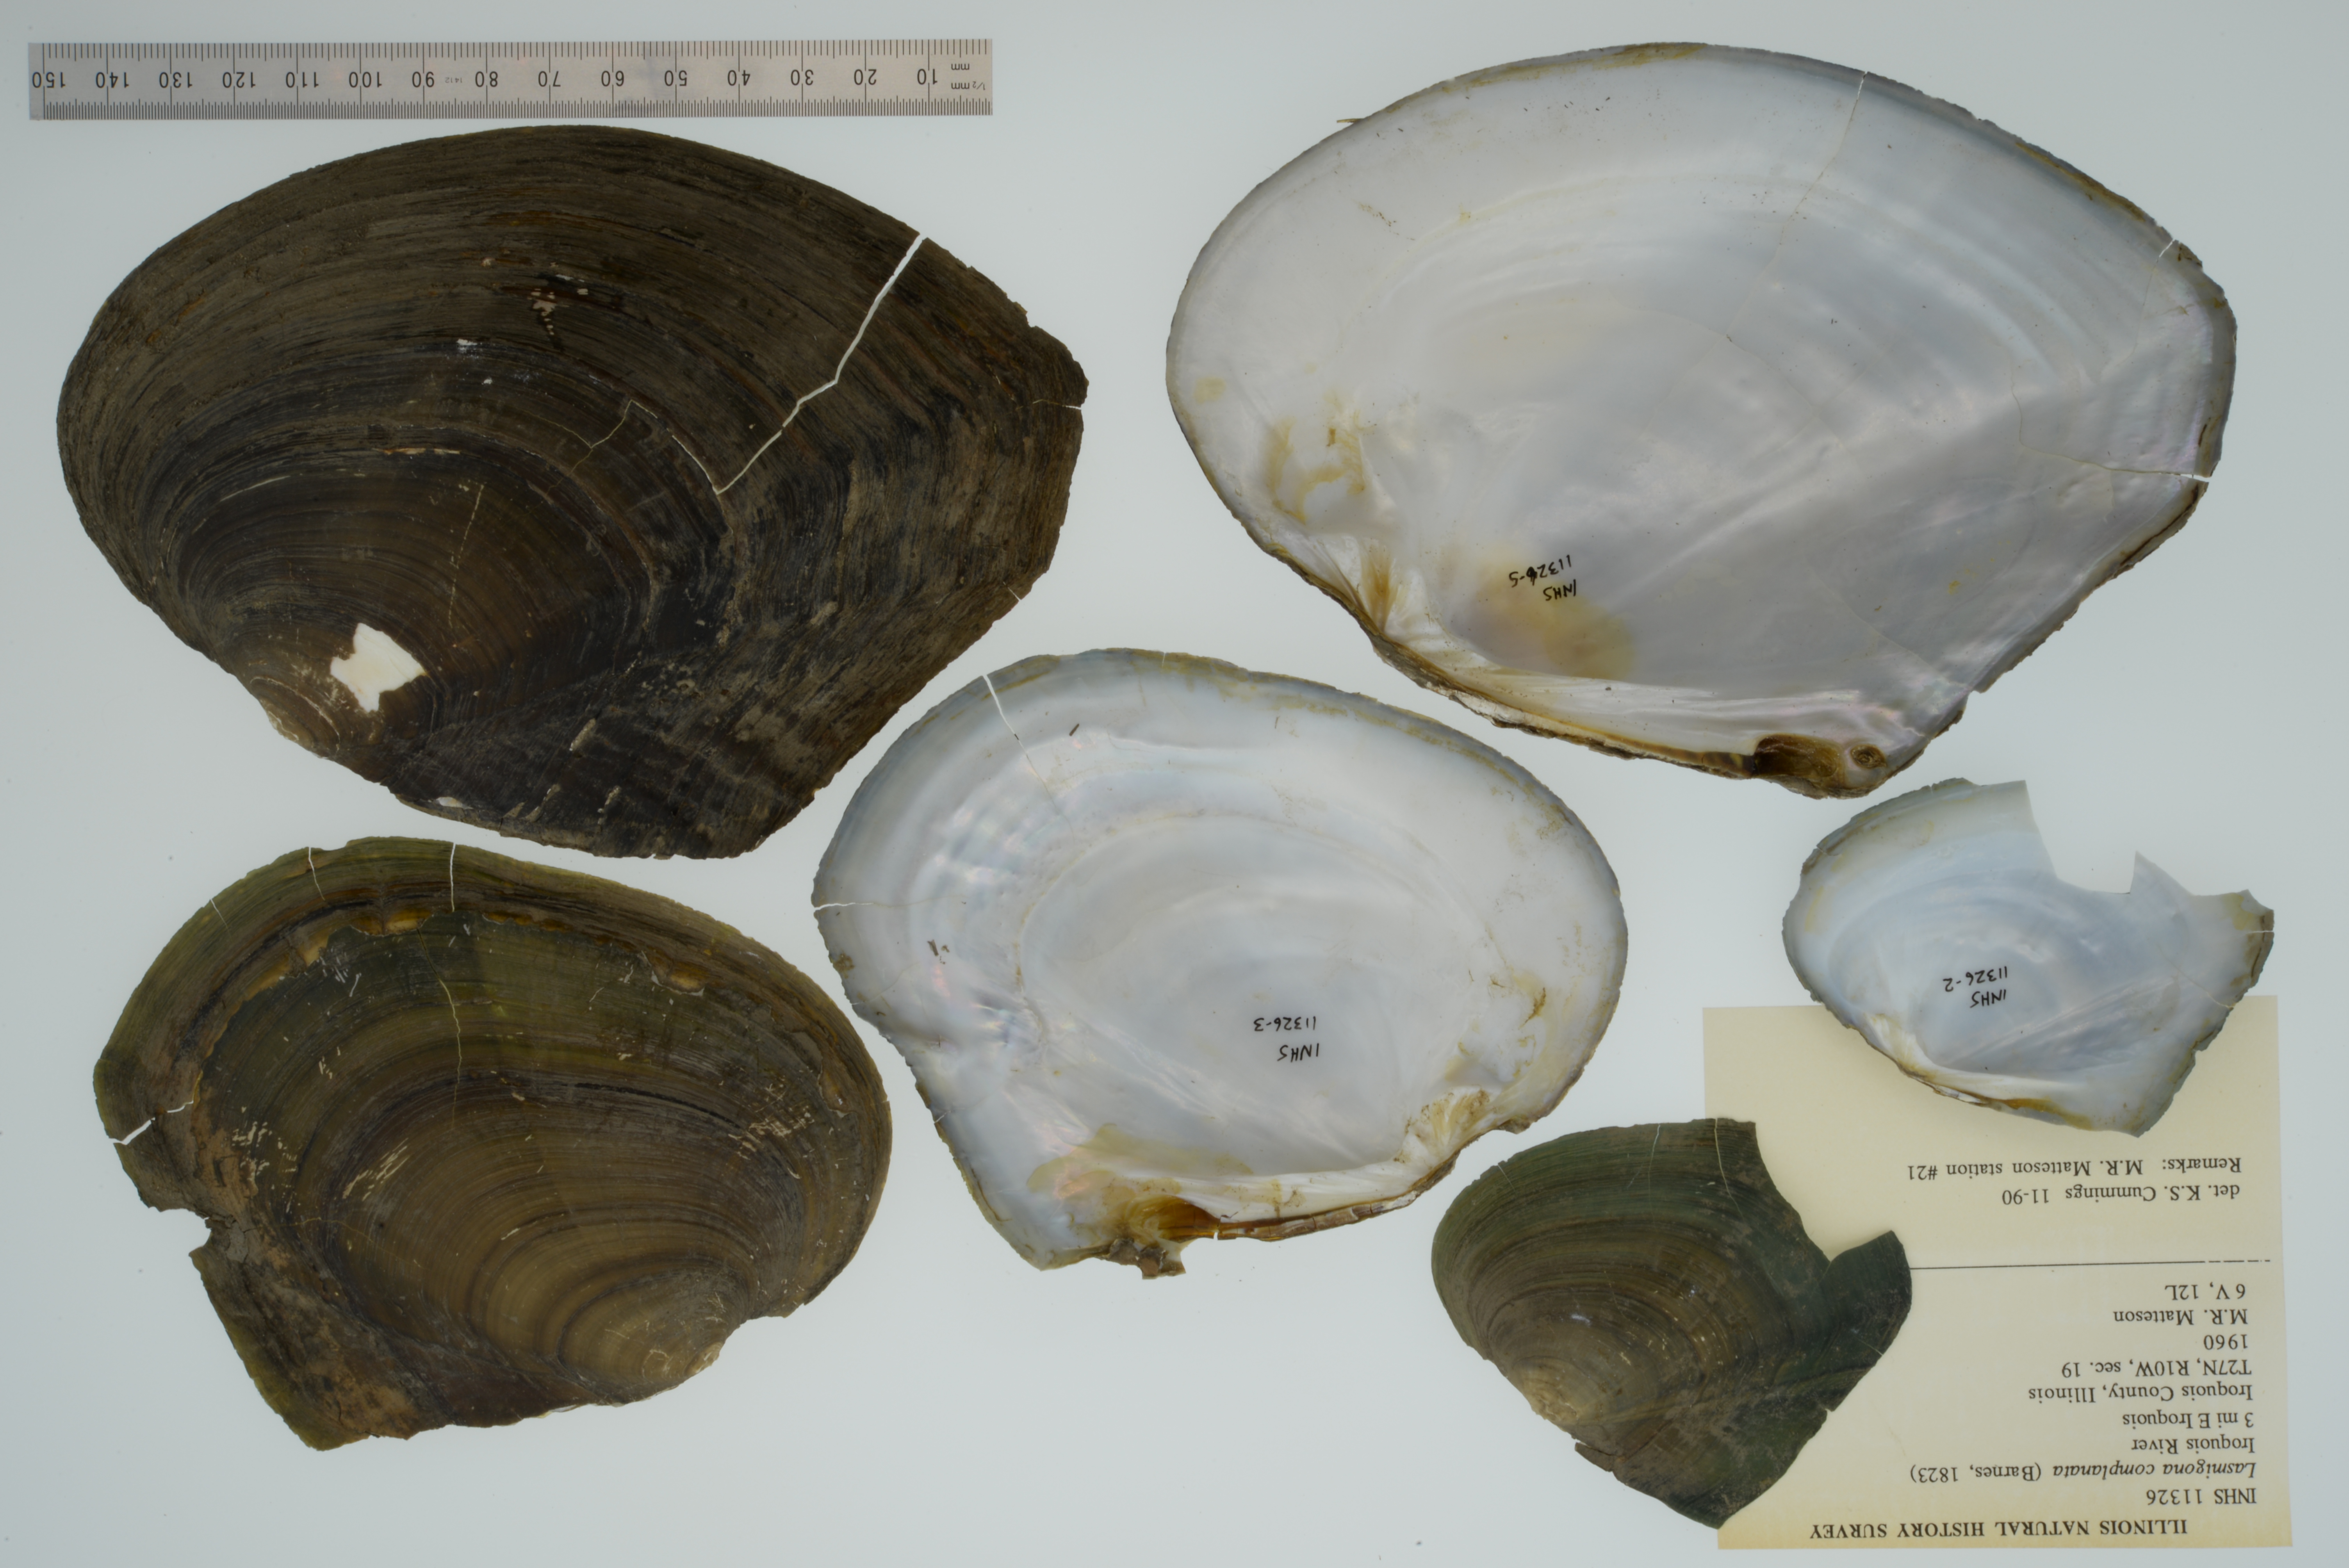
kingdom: Animalia
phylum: Mollusca
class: Bivalvia
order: Unionida
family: Unionidae
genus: Lasmigona
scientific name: Lasmigona complanata
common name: White heelsplitter
